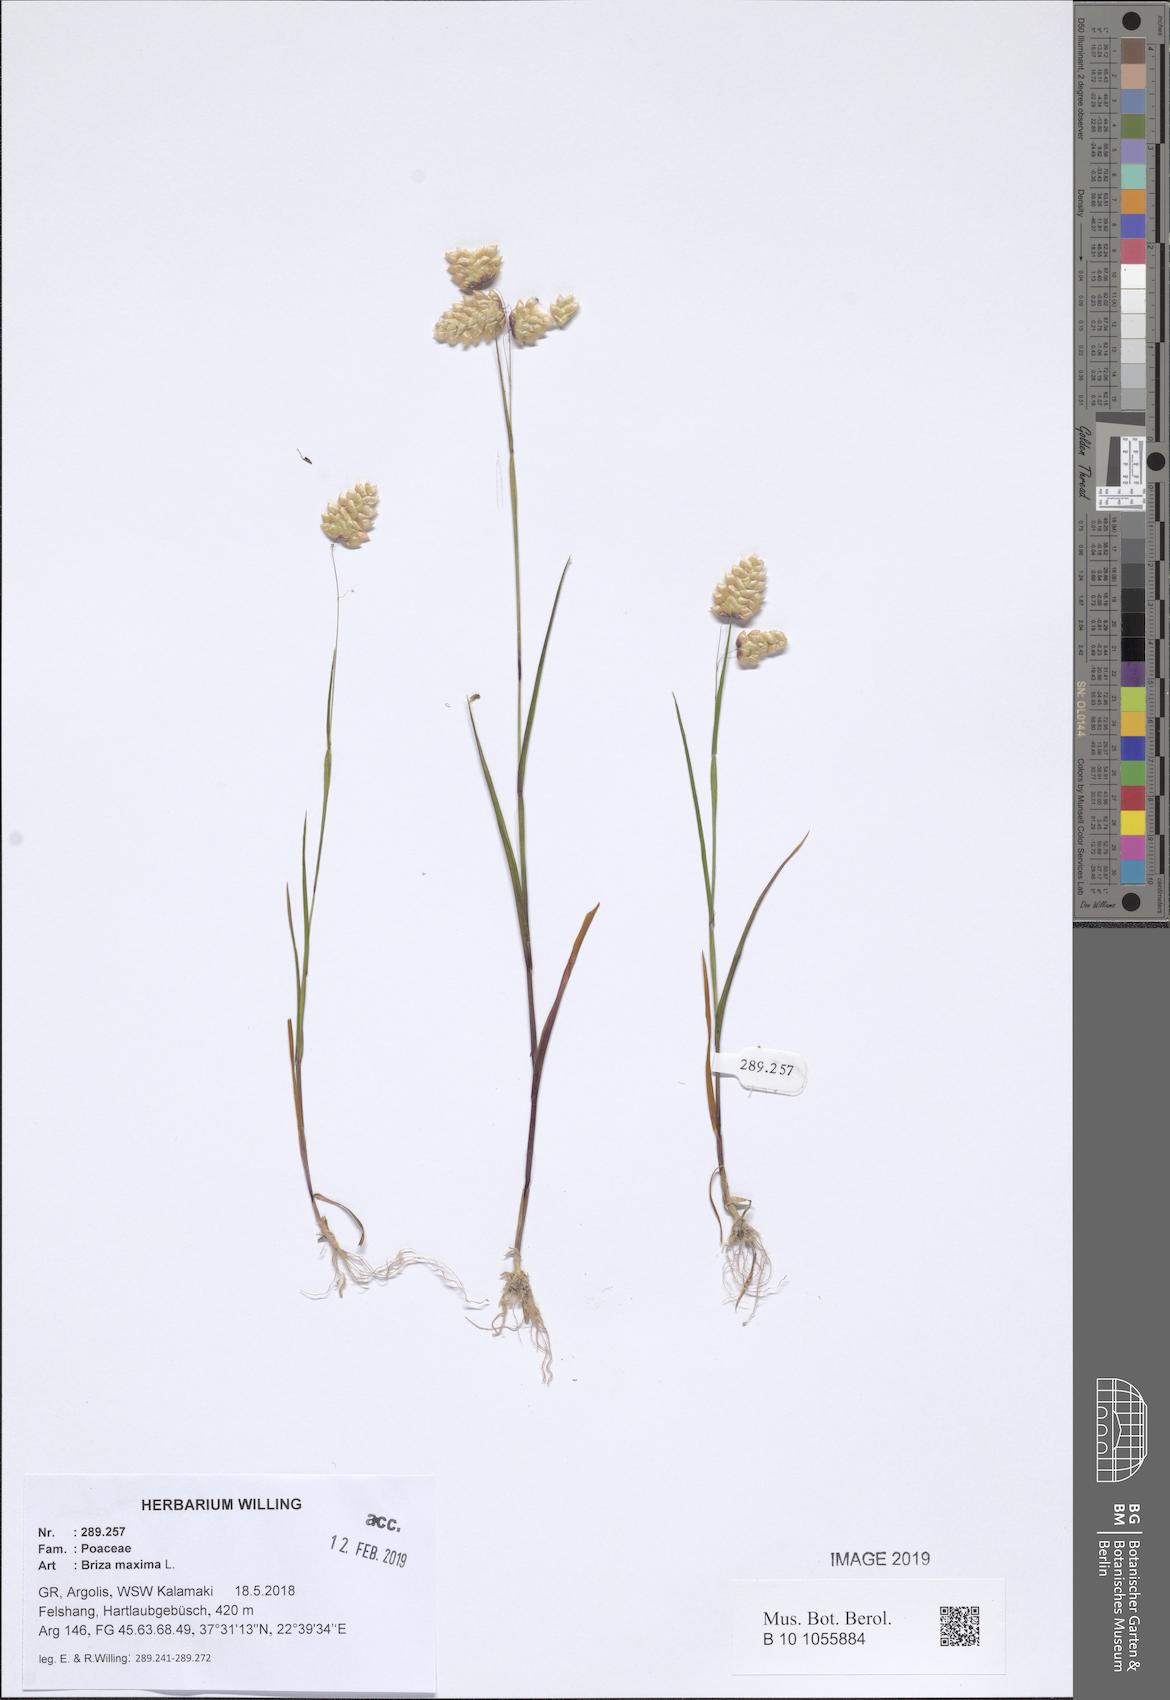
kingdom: Plantae
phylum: Tracheophyta
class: Liliopsida
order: Poales
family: Poaceae
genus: Briza
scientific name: Briza maxima
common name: Big quakinggrass
